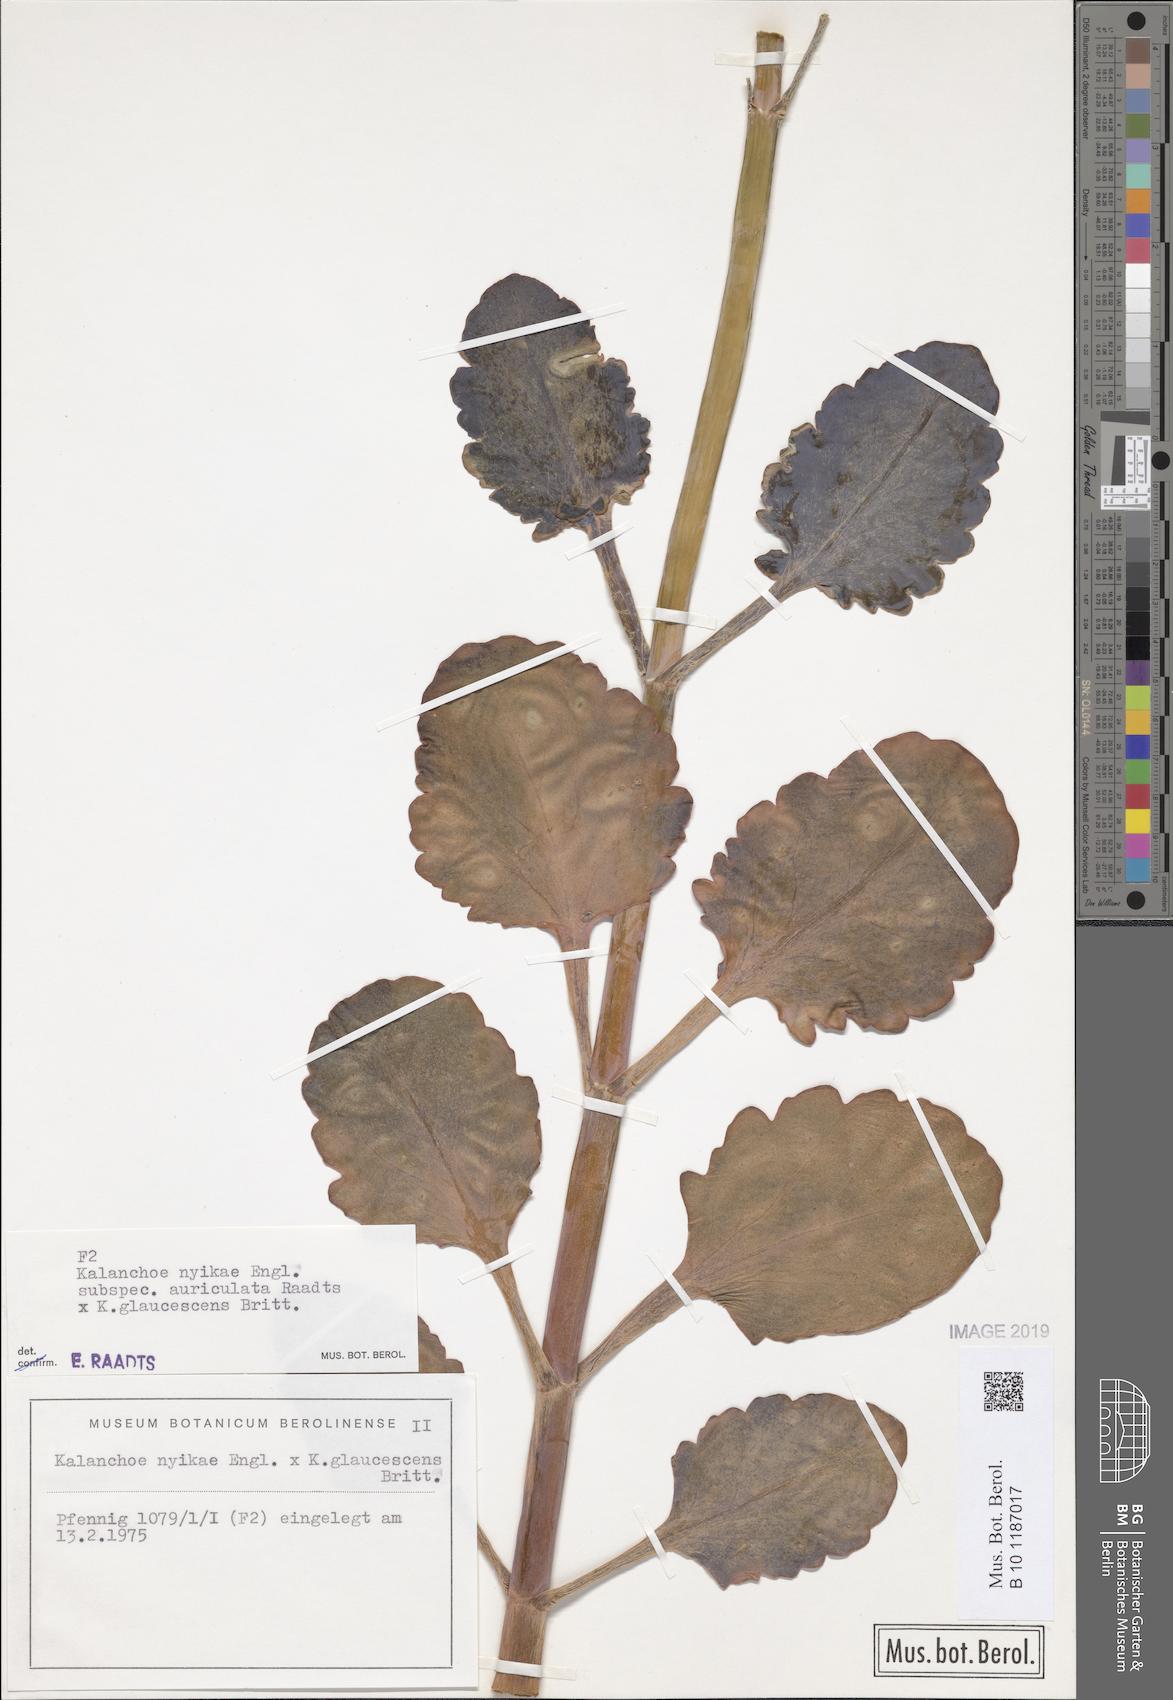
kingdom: Plantae
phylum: Tracheophyta
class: Magnoliopsida
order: Saxifragales
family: Crassulaceae
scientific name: Crassulaceae
